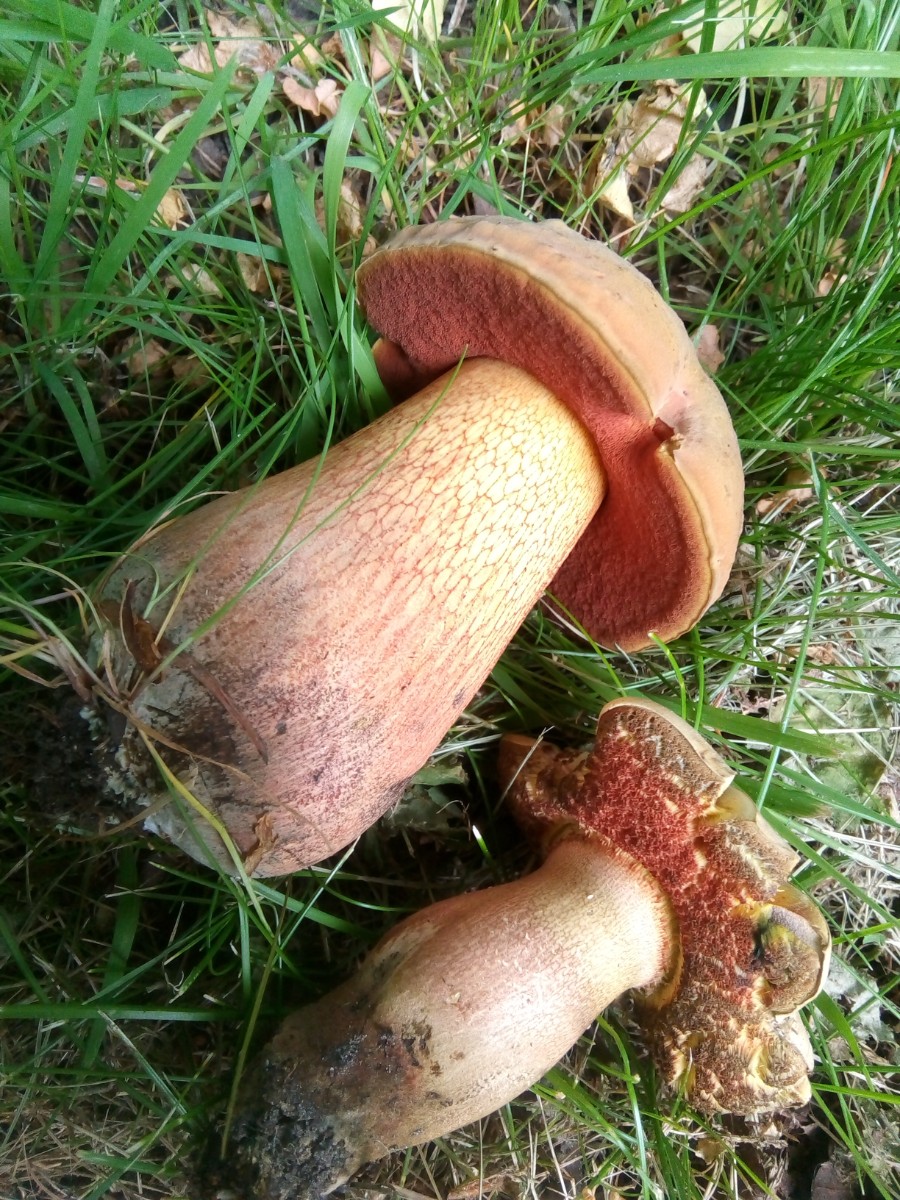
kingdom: Fungi
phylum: Basidiomycota
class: Agaricomycetes
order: Boletales
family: Boletaceae
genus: Suillellus
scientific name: Suillellus luridus
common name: netstokket indigorørhat
